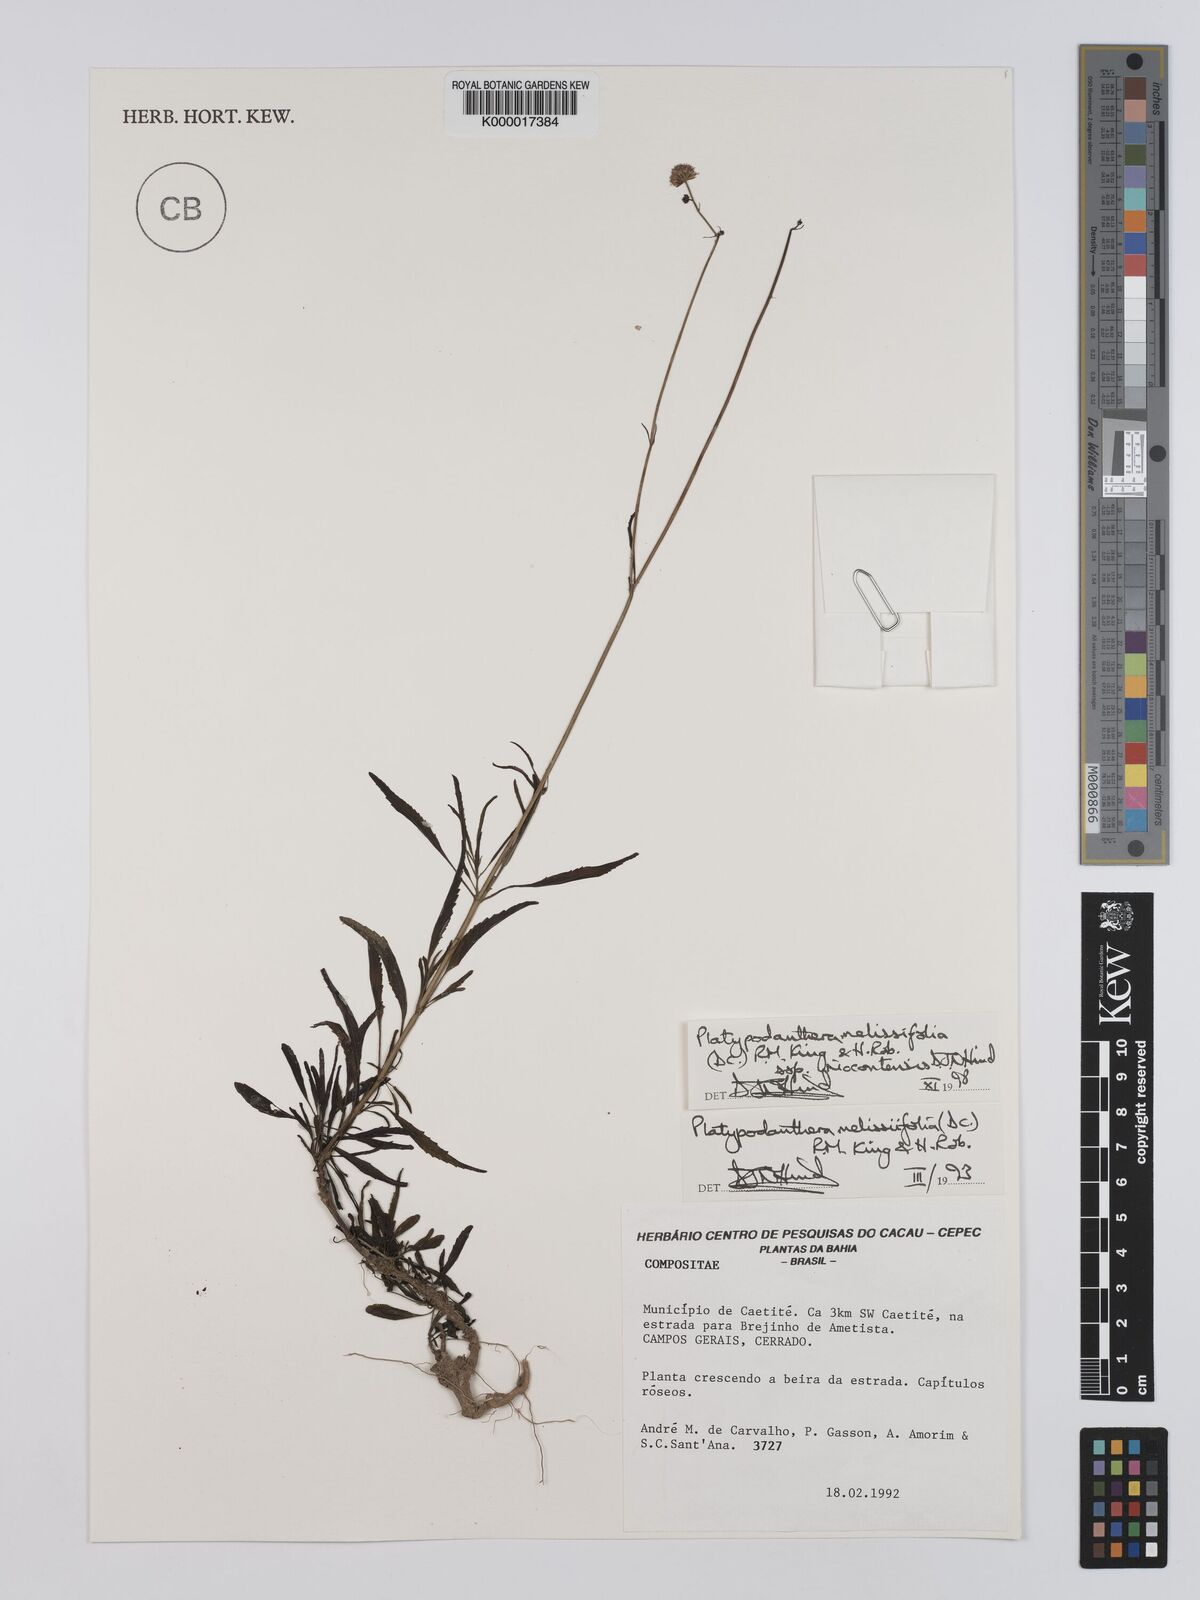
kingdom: Plantae
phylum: Tracheophyta
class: Magnoliopsida
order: Asterales
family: Asteraceae
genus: Platypodanthera
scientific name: Platypodanthera melissifolia
